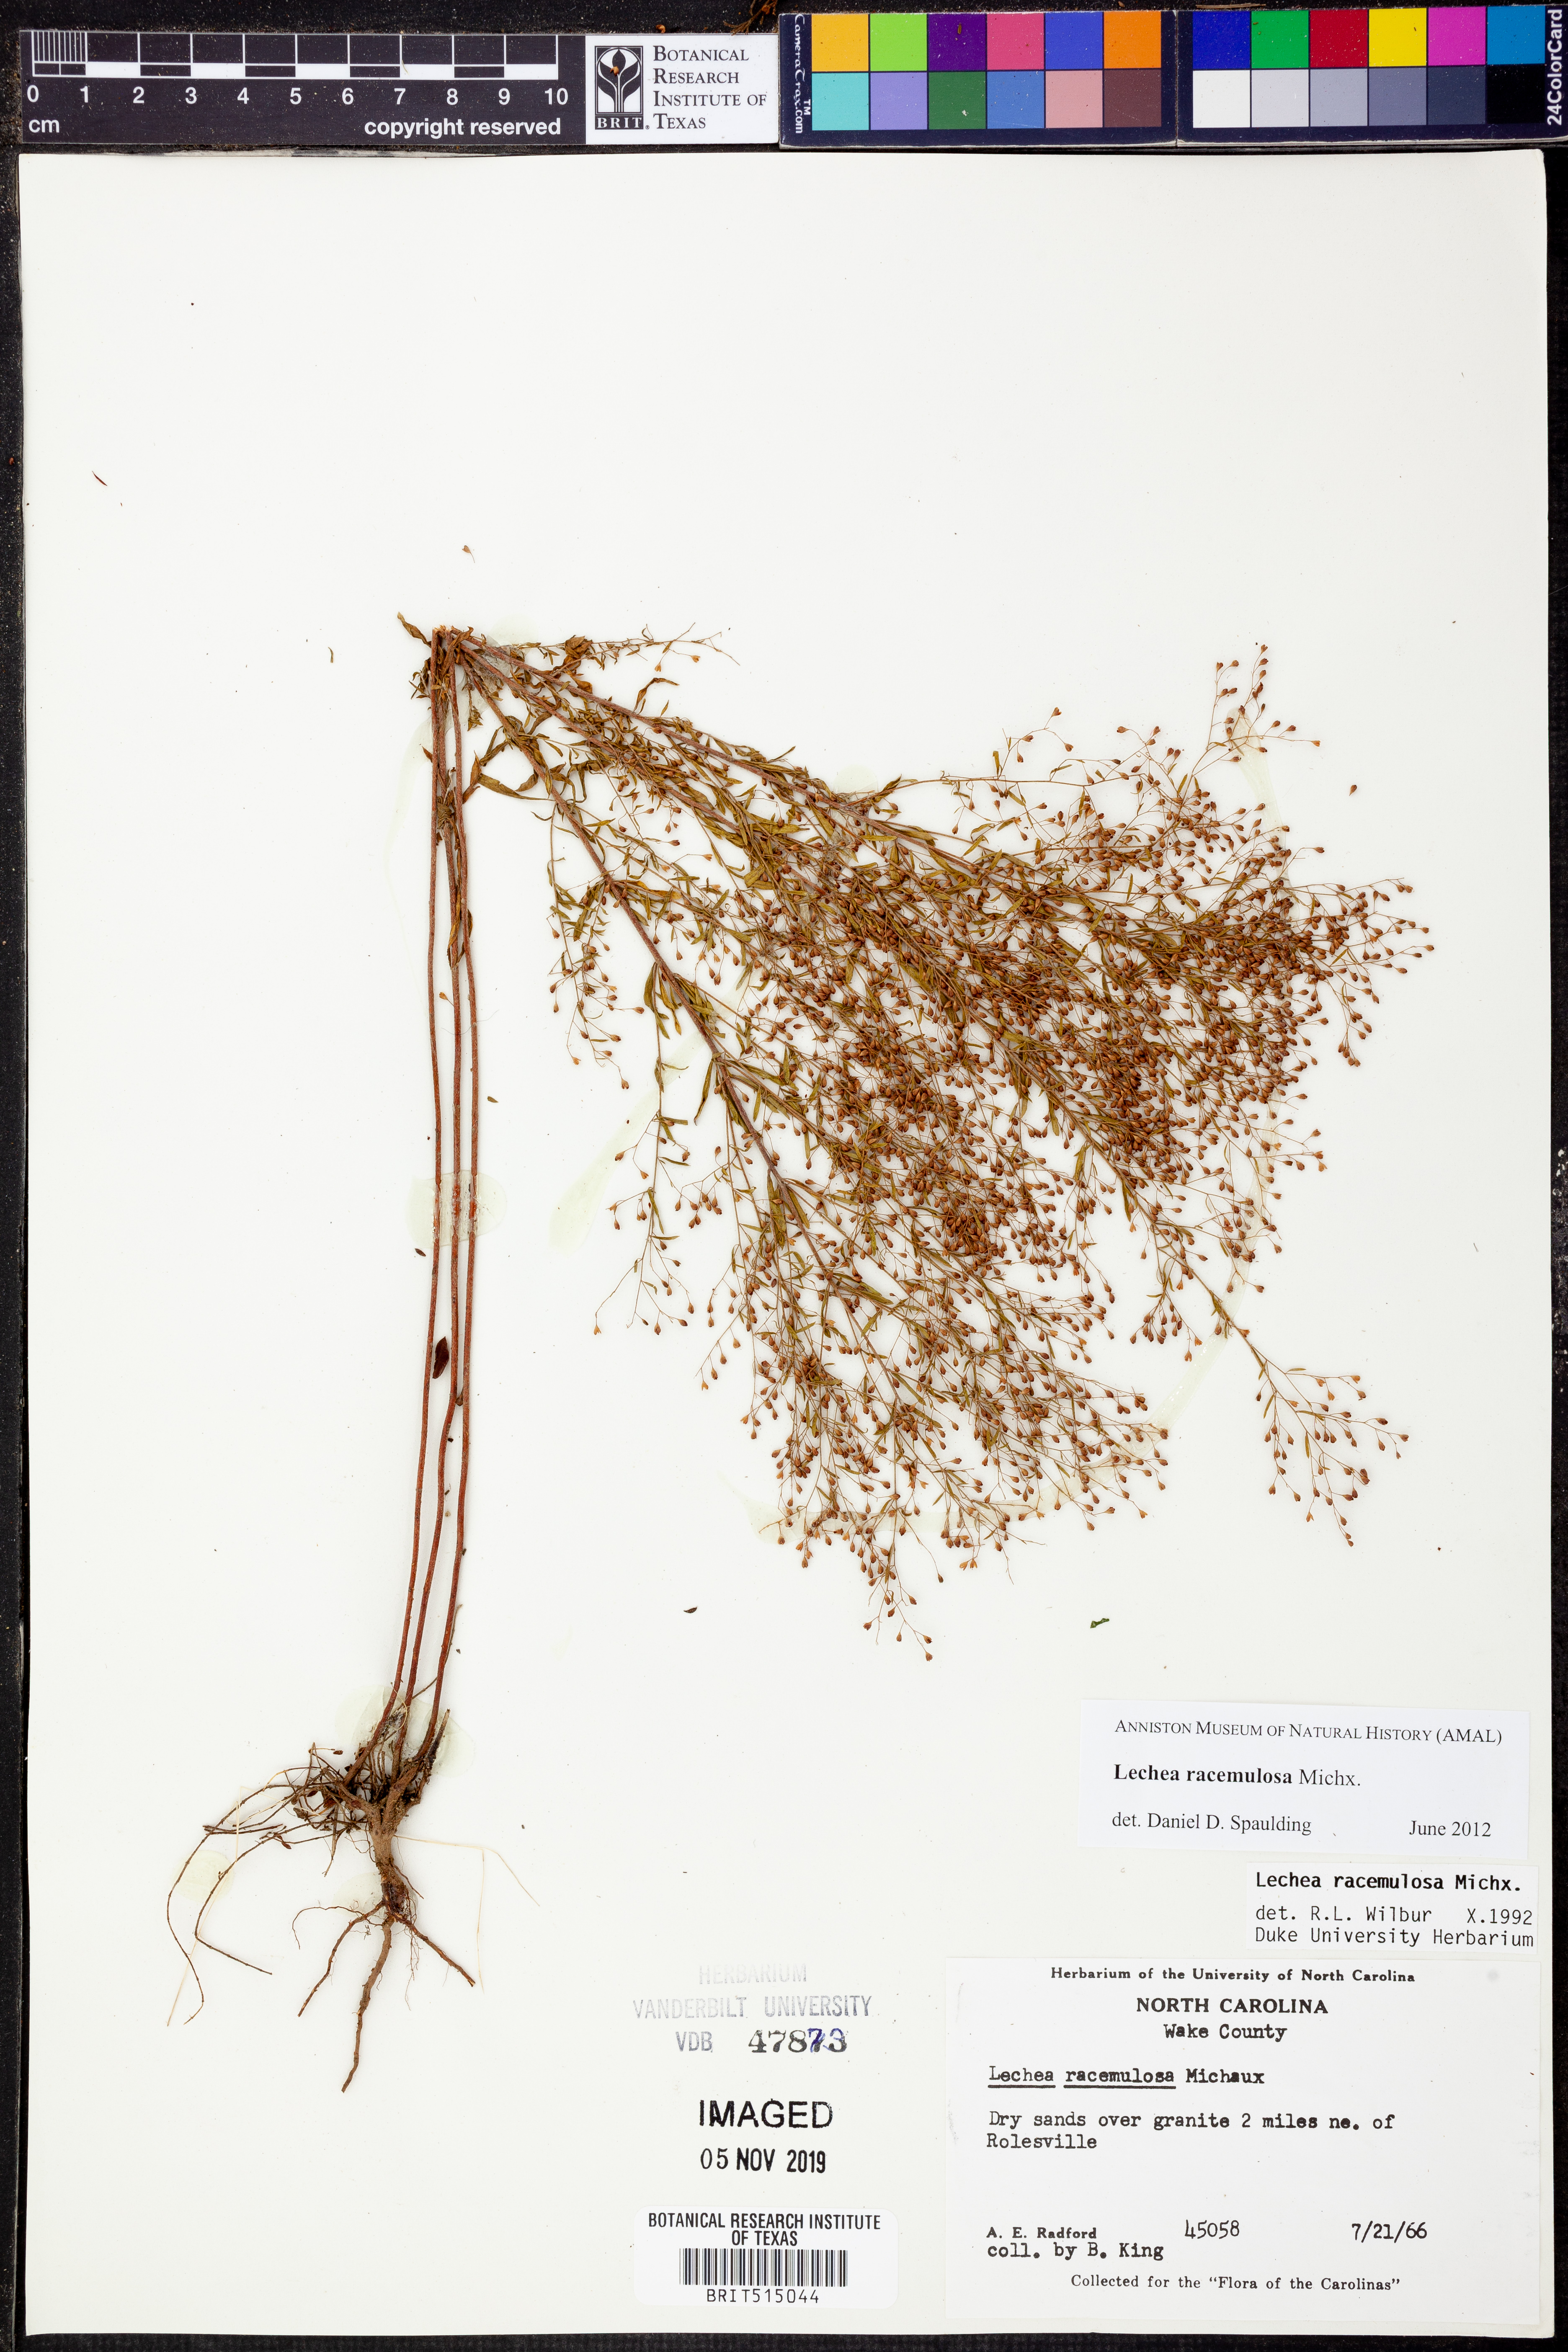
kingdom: Plantae
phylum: Tracheophyta
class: Magnoliopsida
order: Malvales
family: Cistaceae
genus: Lechea
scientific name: Lechea racemulosa
